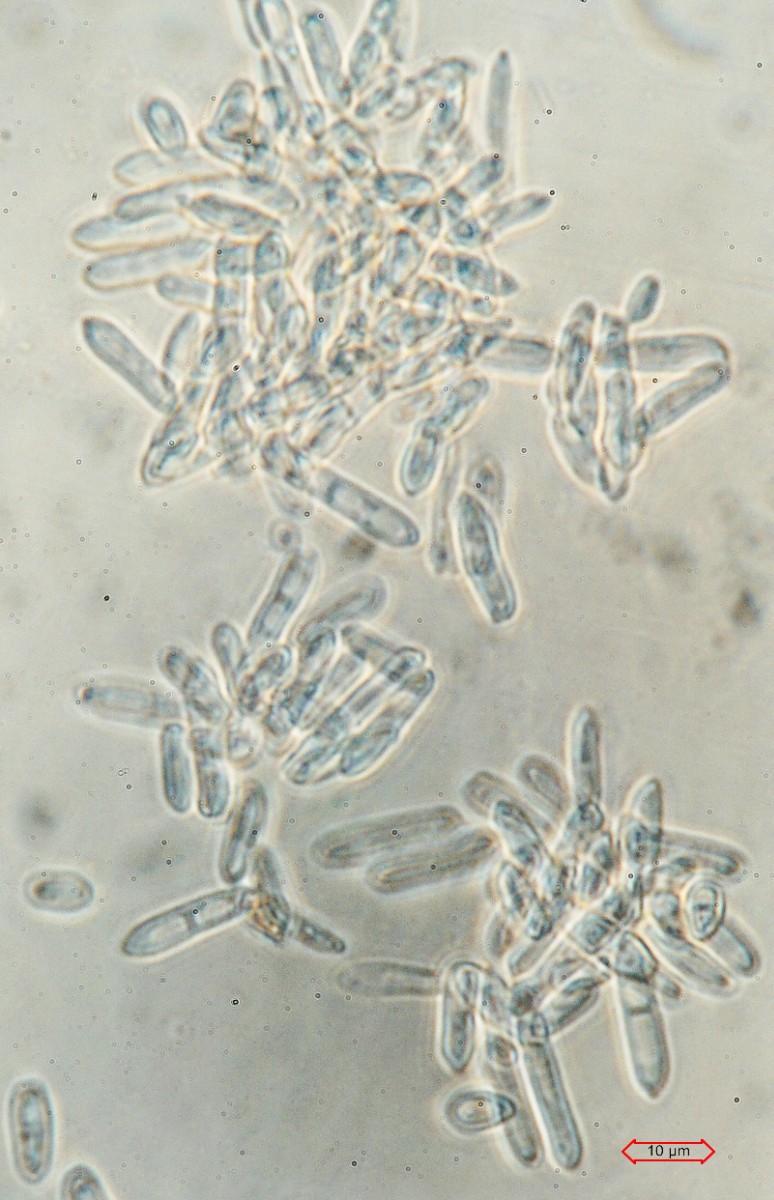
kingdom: Fungi
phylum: Ascomycota
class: Dothideomycetes
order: Mycosphaerellales
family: Mycosphaerellaceae
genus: Ramularia
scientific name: Ramularia glechomatis
